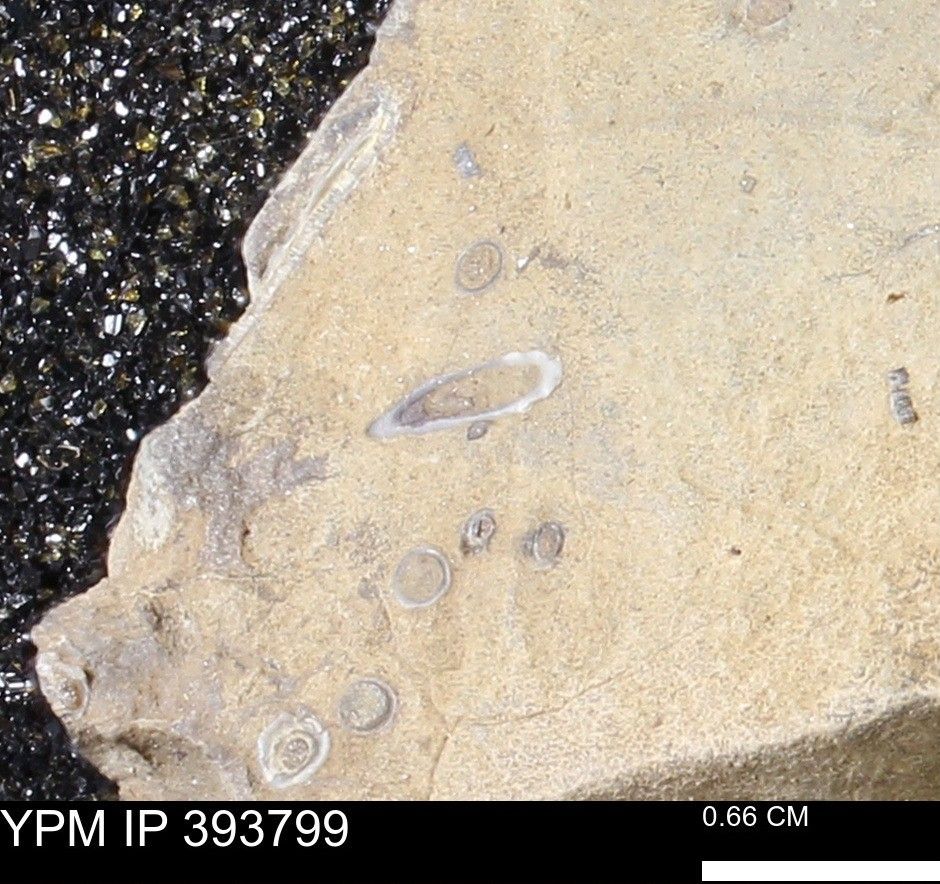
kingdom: Animalia
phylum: Annelida
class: Polychaeta
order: Sabellida
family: Serpulidae
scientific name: Serpulidae
